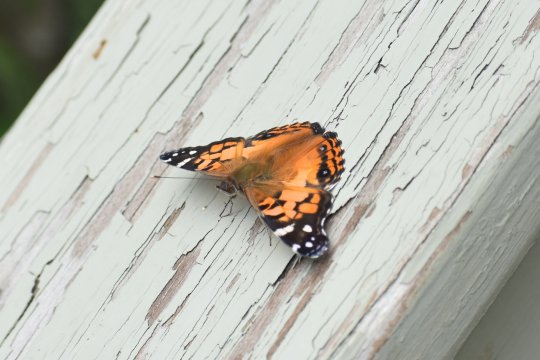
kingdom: Animalia
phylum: Arthropoda
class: Insecta
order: Lepidoptera
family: Nymphalidae
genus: Vanessa
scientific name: Vanessa virginiensis
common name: American Lady
